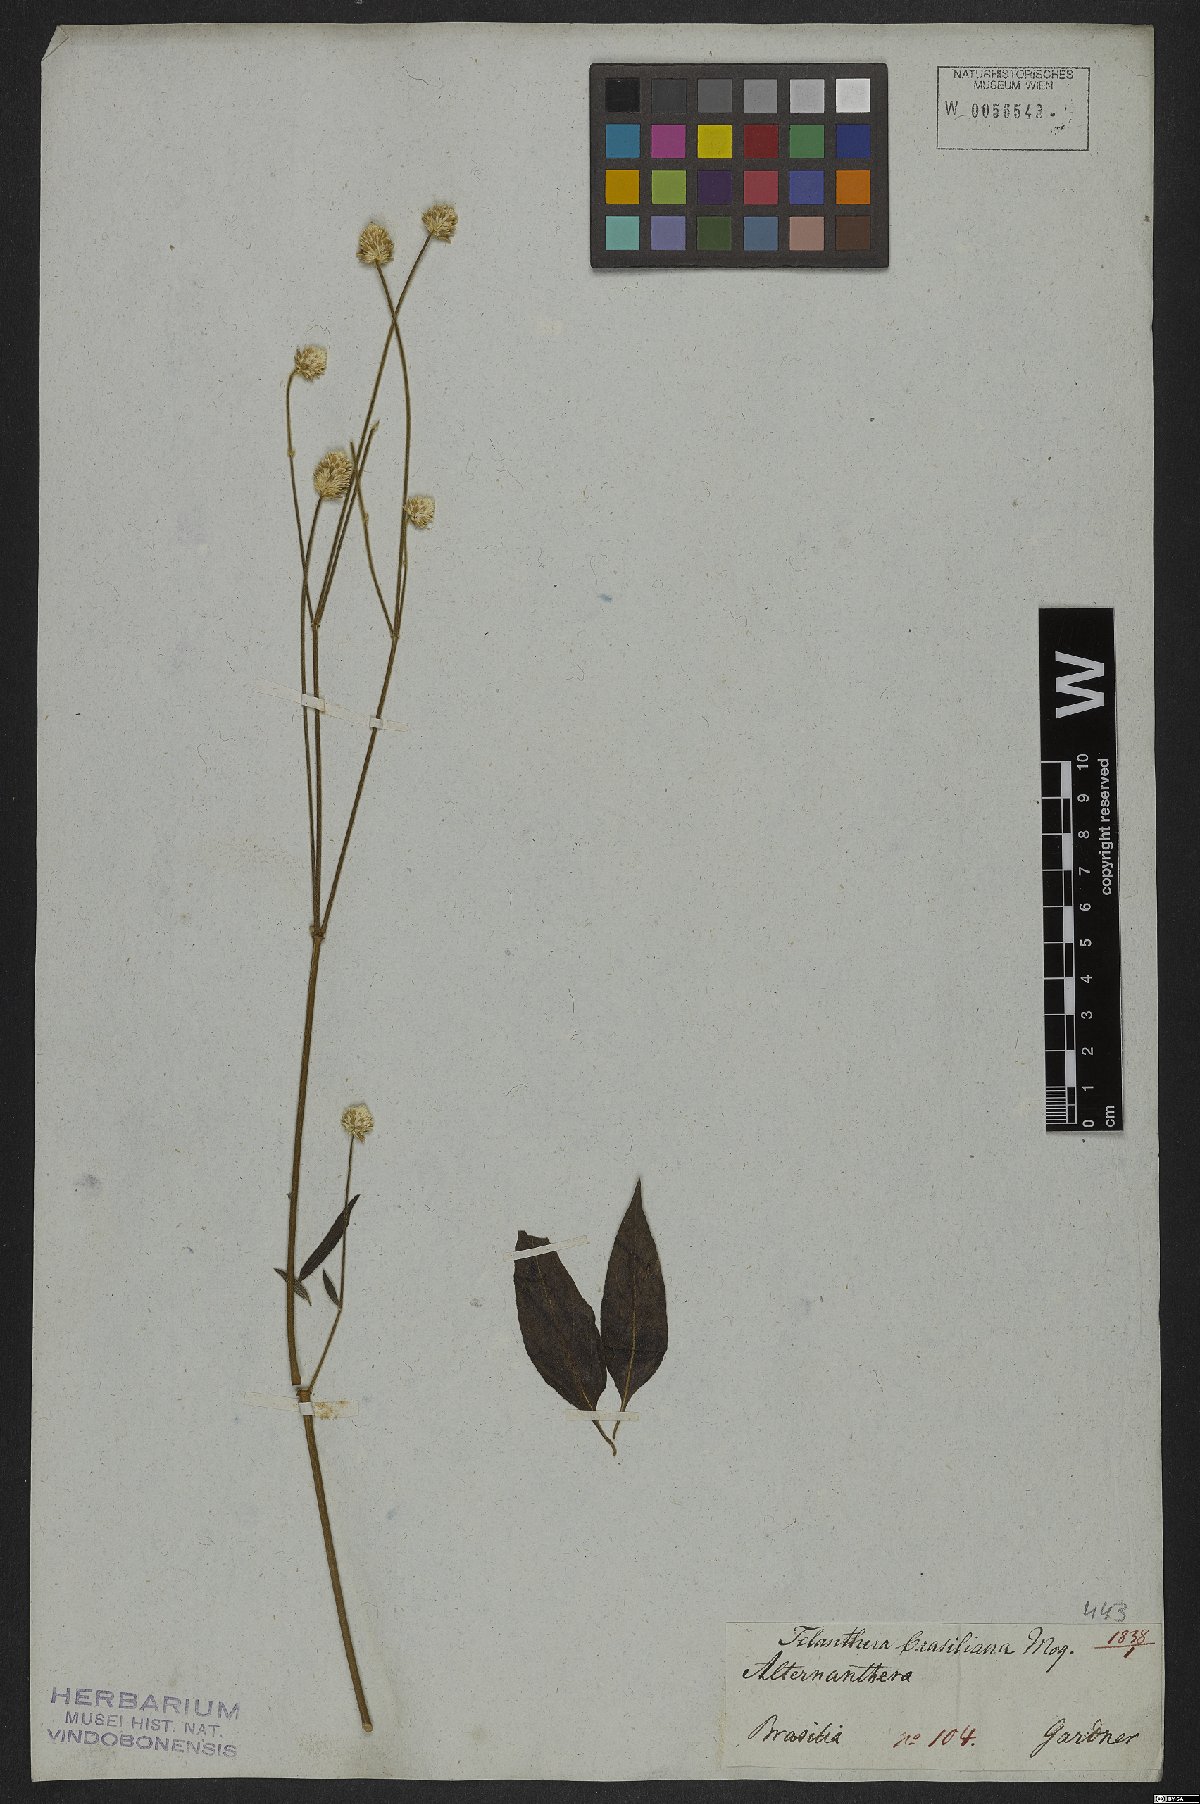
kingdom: Plantae
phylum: Tracheophyta
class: Magnoliopsida
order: Caryophyllales
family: Amaranthaceae
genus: Alternanthera
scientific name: Alternanthera brasiliana
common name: Brazilian joyweed
